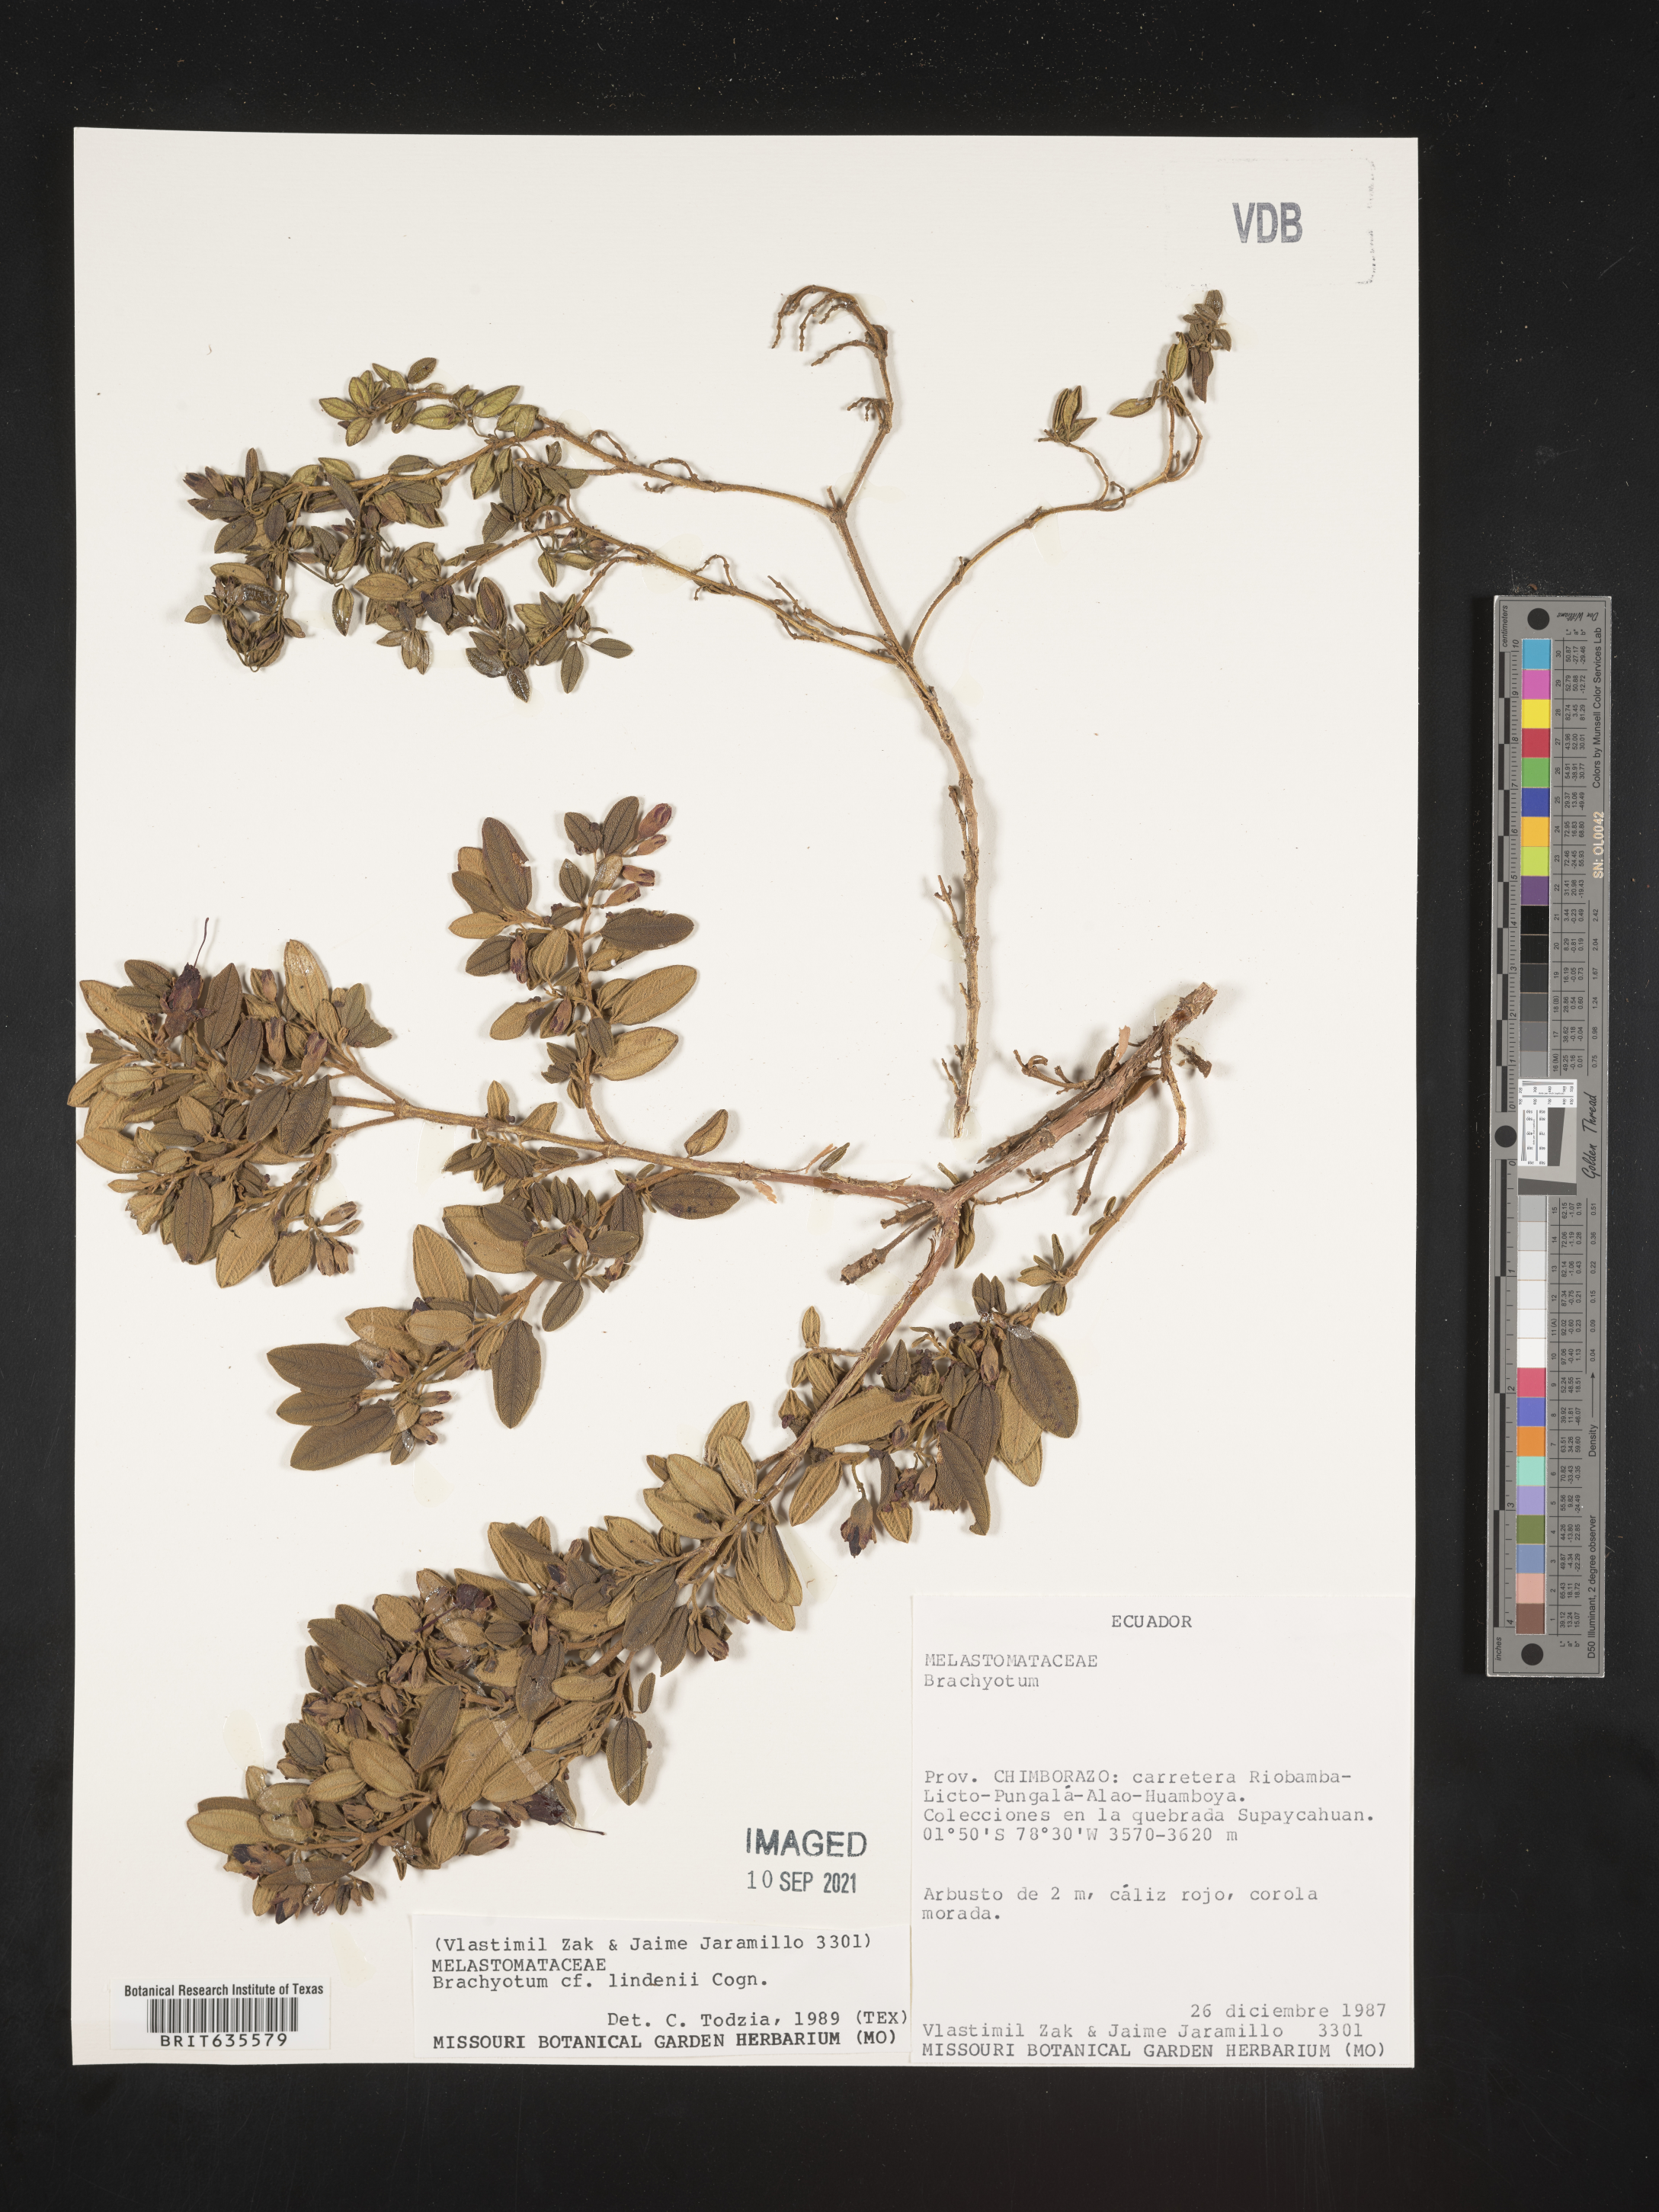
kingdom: Plantae
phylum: Tracheophyta
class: Magnoliopsida
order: Myrtales
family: Melastomataceae
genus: Brachyotum
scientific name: Brachyotum
